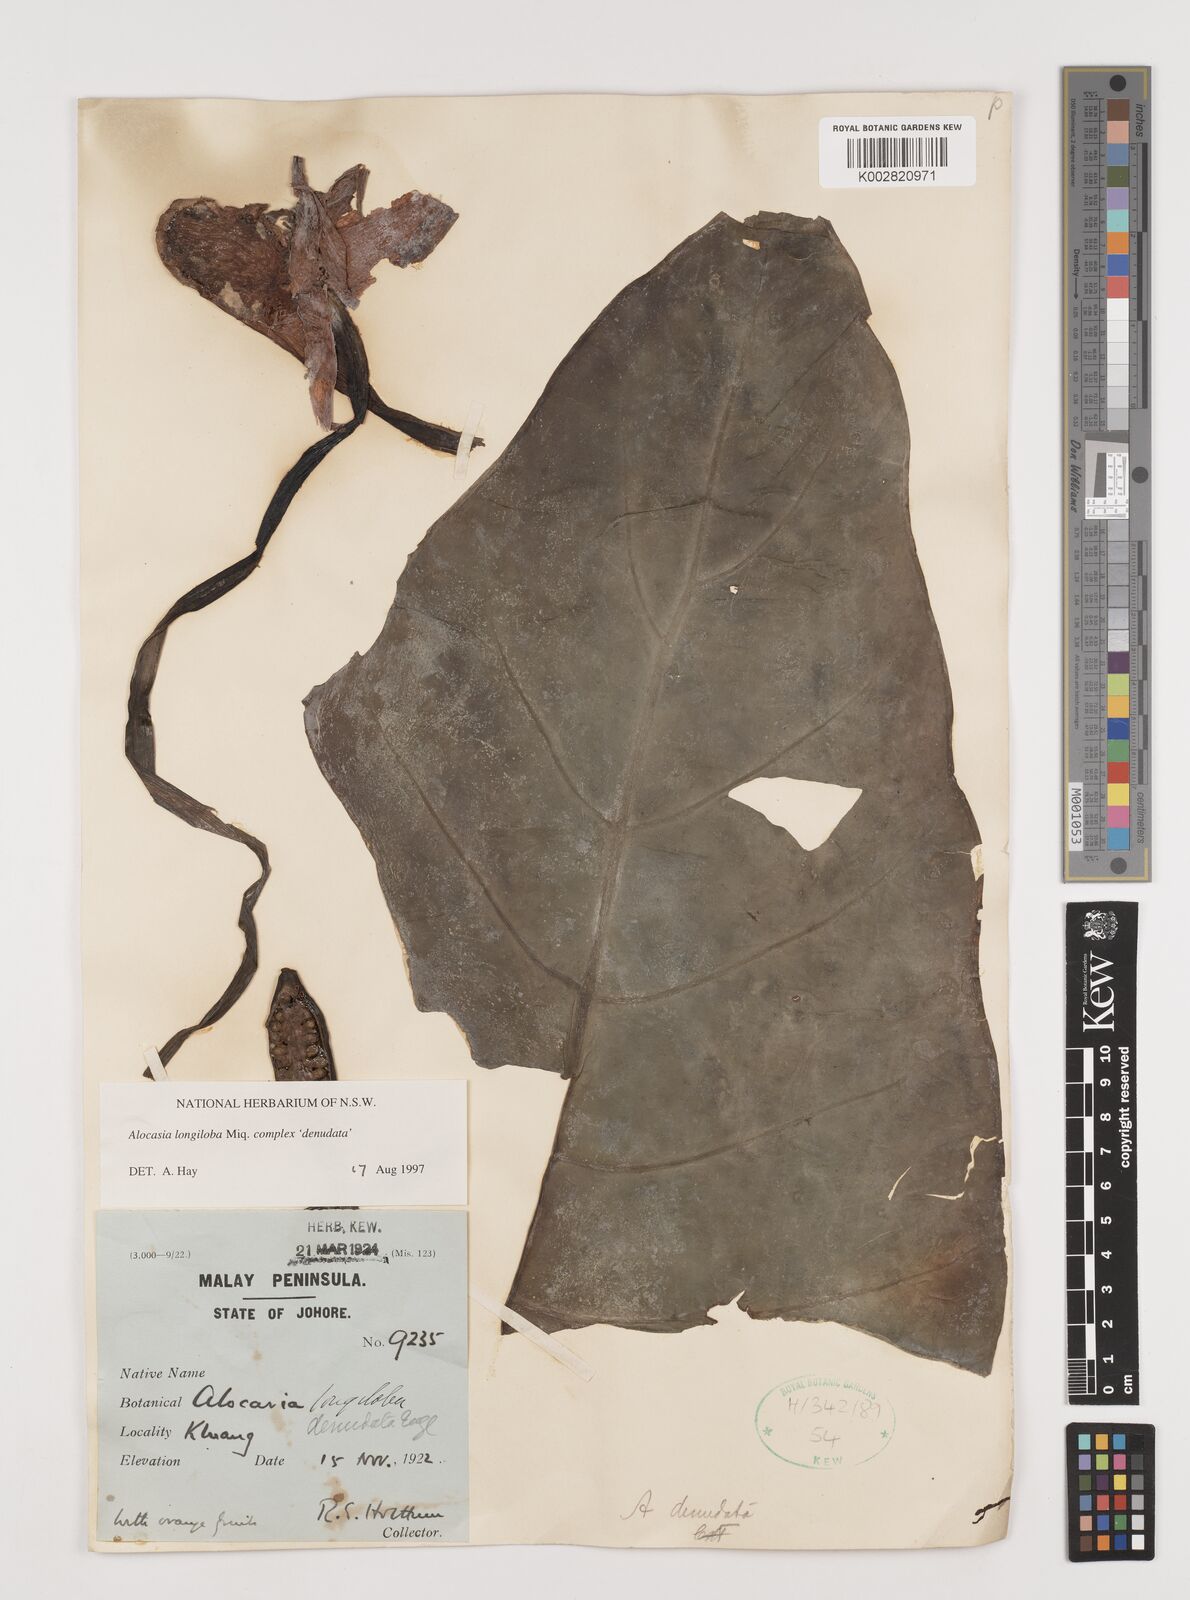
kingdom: Plantae
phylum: Tracheophyta
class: Liliopsida
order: Alismatales
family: Araceae
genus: Alocasia
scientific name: Alocasia longiloba
